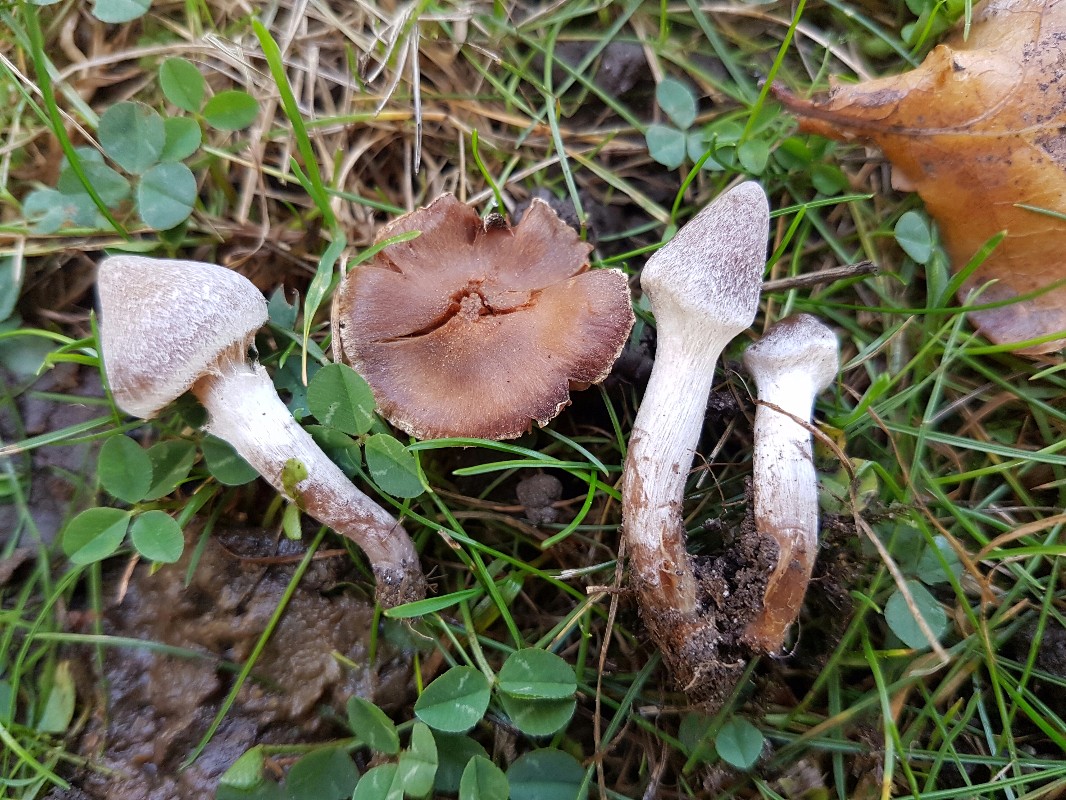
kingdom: Fungi
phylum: Basidiomycota
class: Agaricomycetes
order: Agaricales
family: Cortinariaceae
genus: Cortinarius
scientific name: Cortinarius geraniolens
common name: geranium-slørhat
